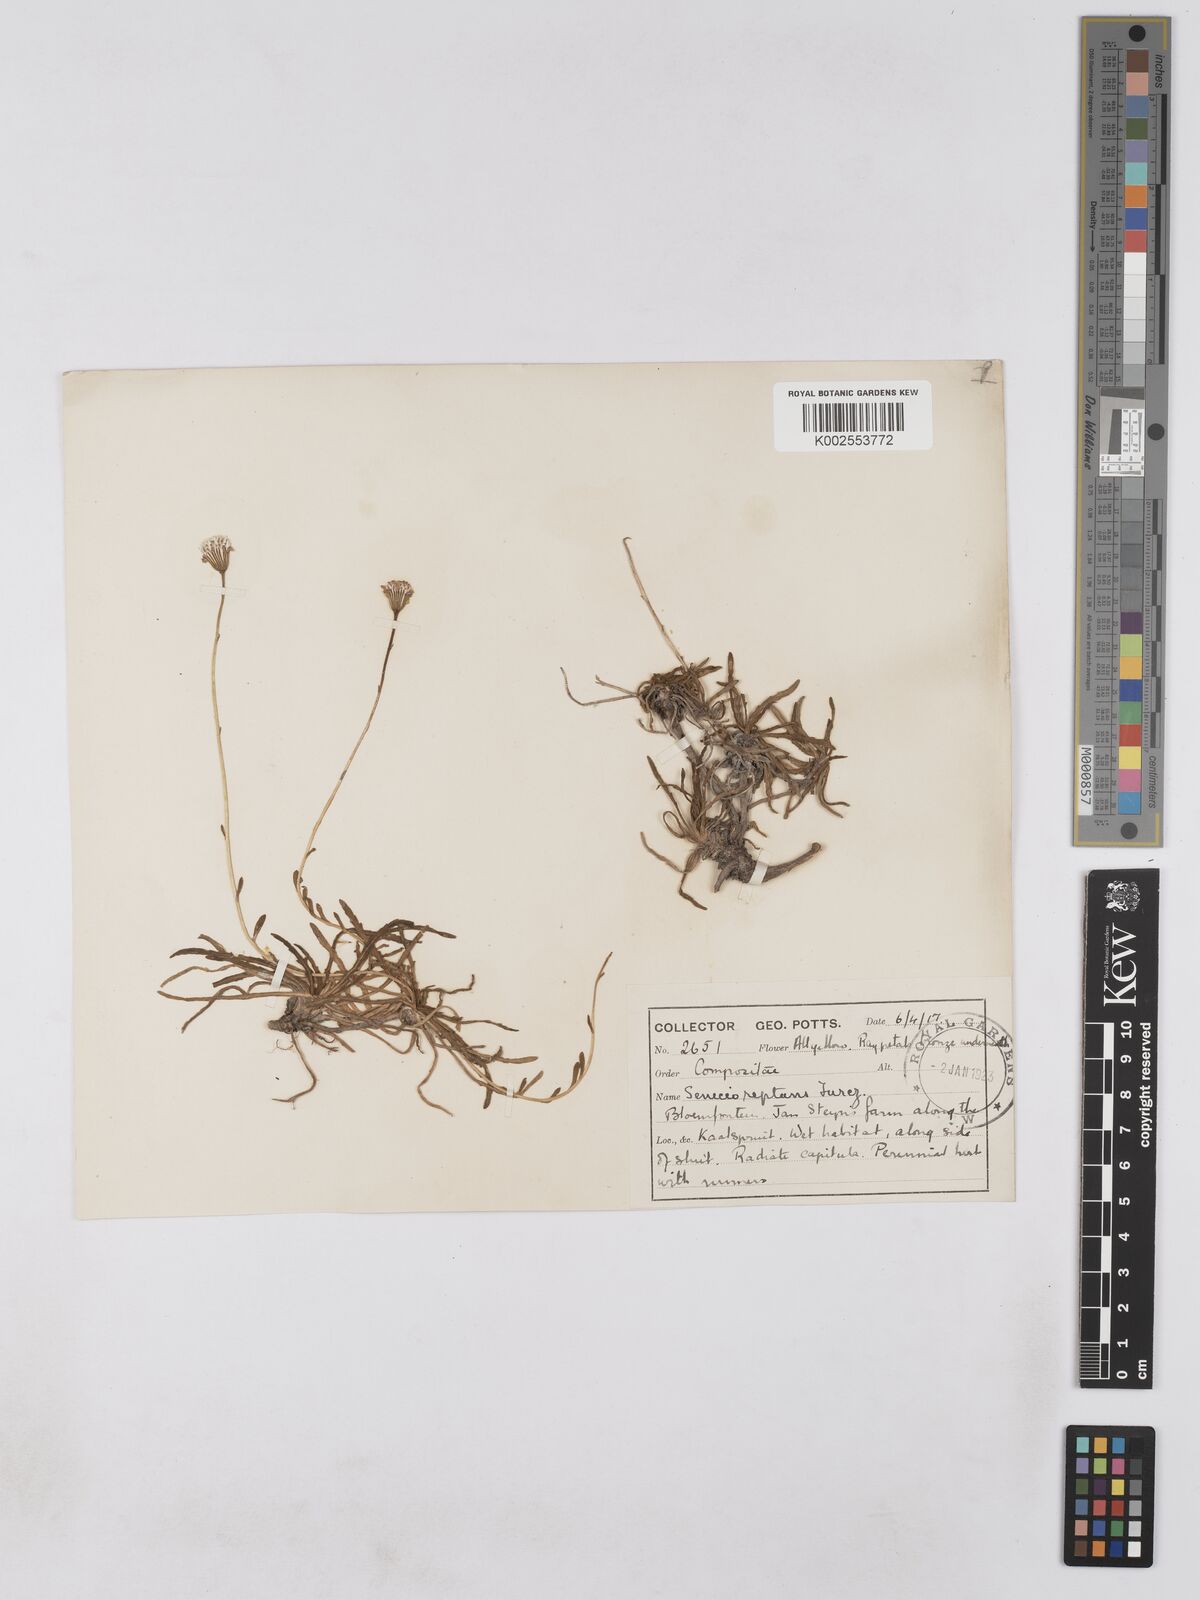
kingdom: Plantae
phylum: Tracheophyta
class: Magnoliopsida
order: Asterales
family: Asteraceae
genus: Senecio
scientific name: Senecio reptans
